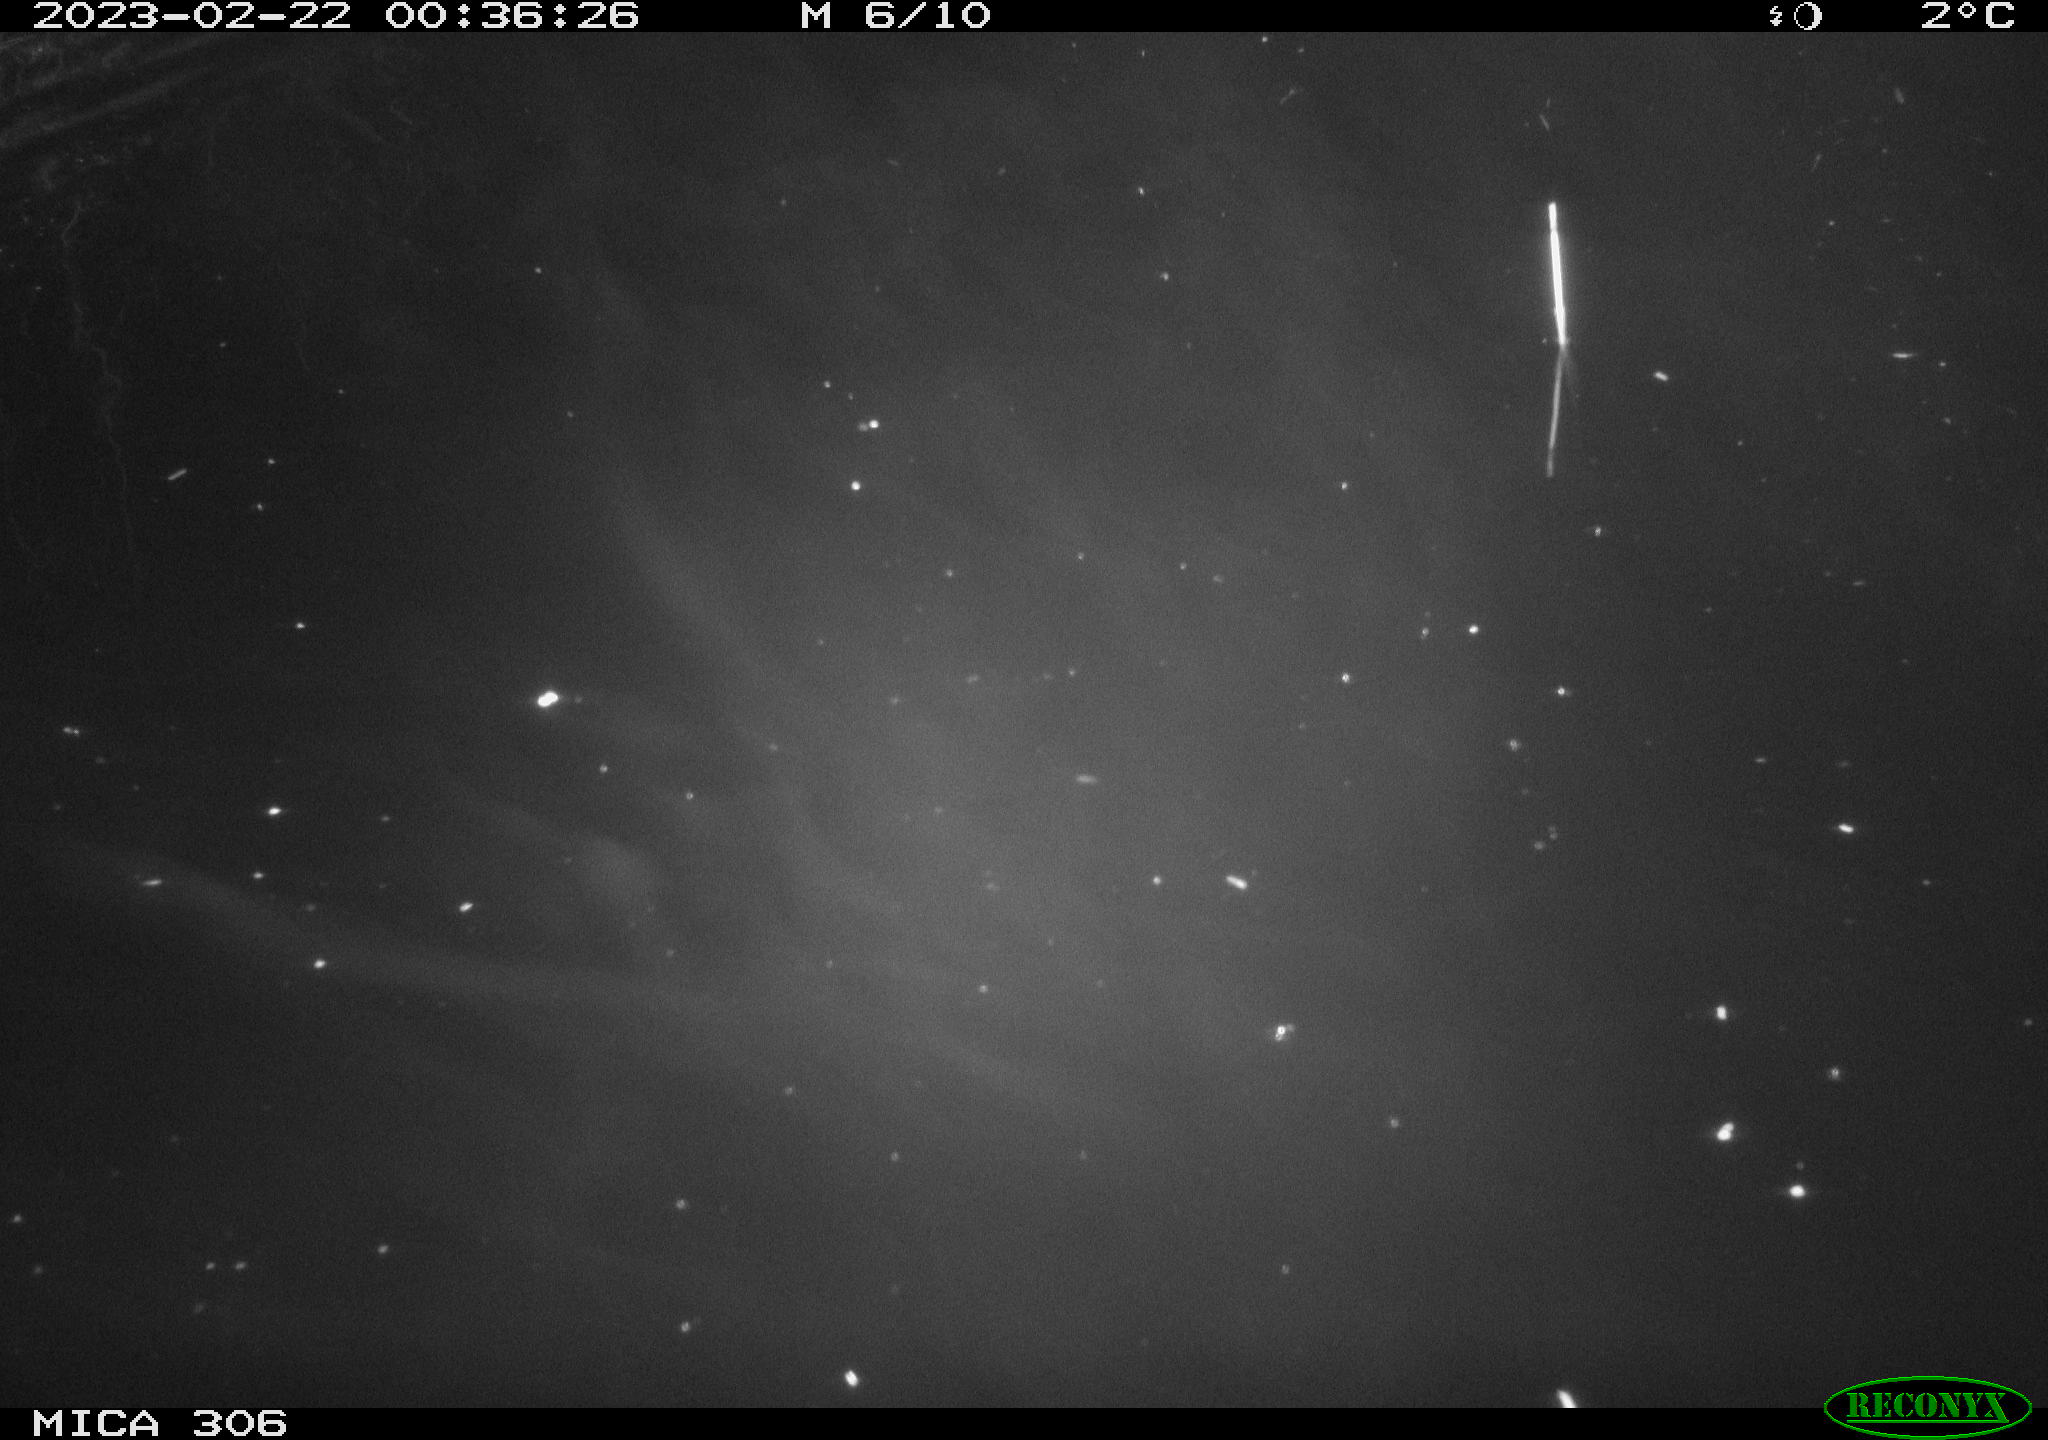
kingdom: Animalia
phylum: Chordata
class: Mammalia
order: Rodentia
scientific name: Rodentia
